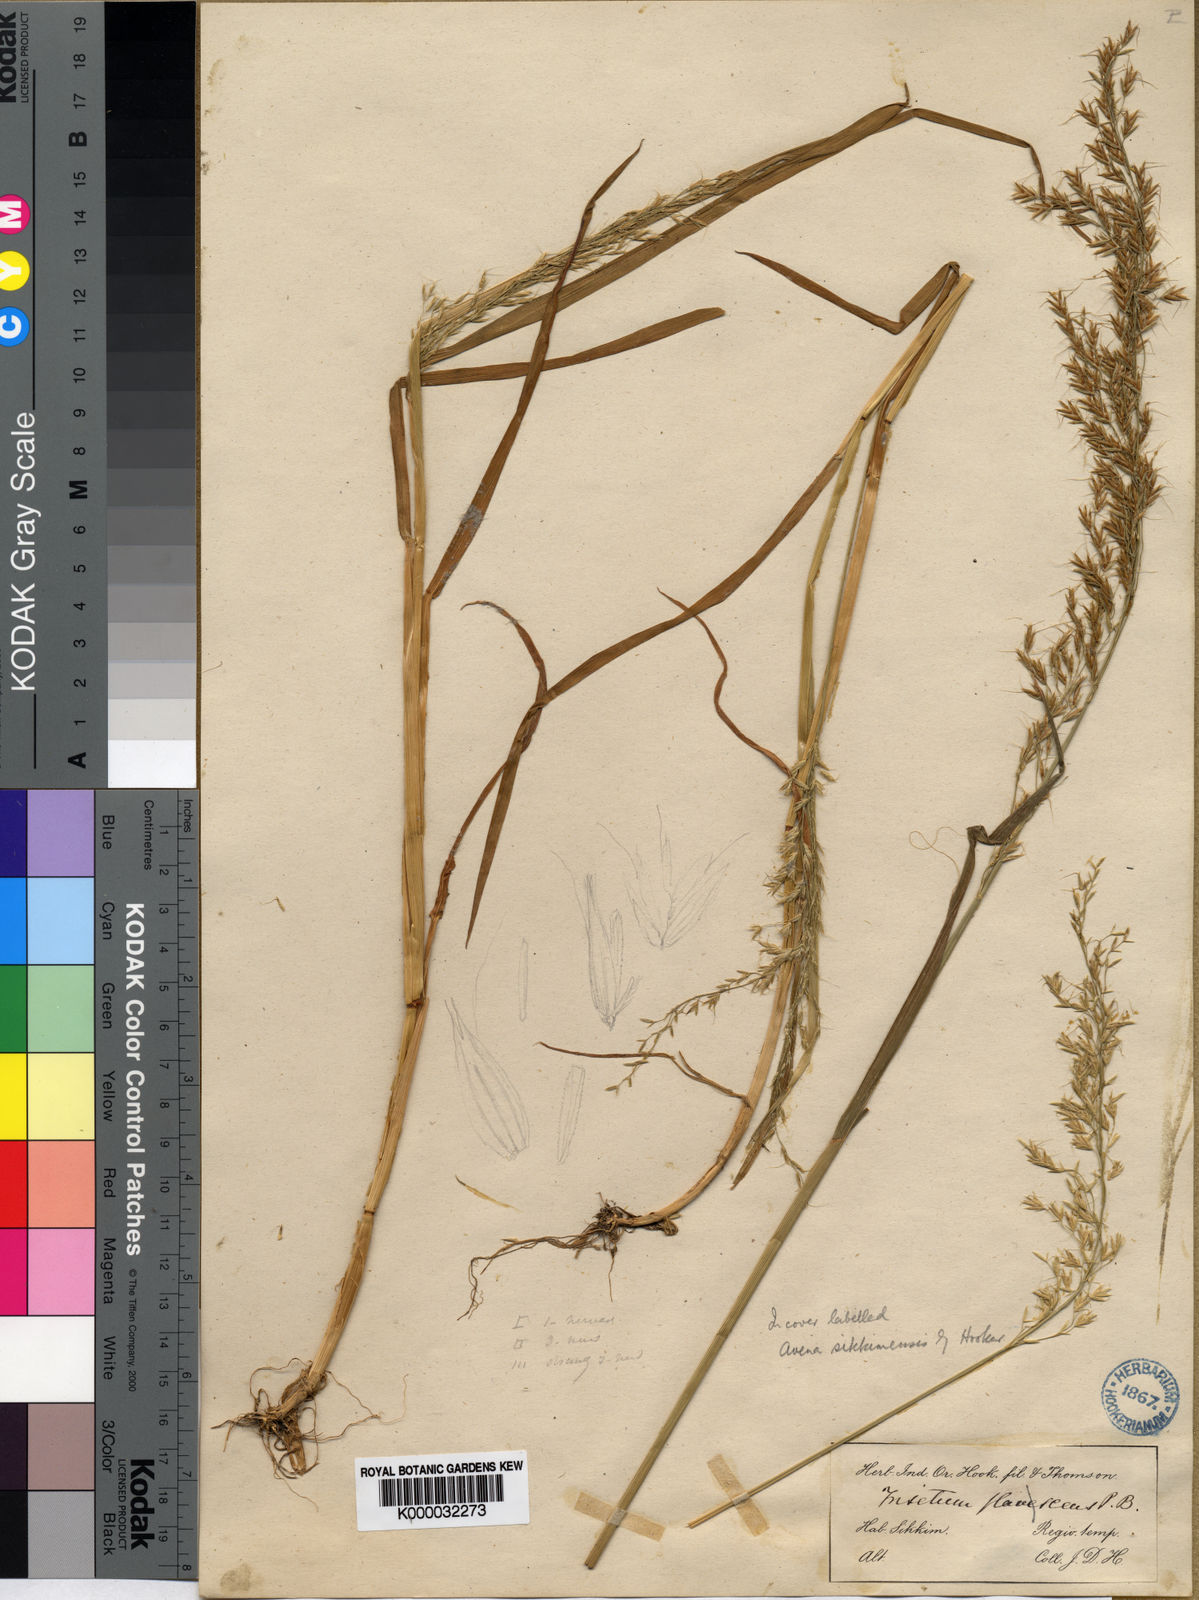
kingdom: Plantae
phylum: Tracheophyta
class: Liliopsida
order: Poales
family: Poaceae
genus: Sibirotrisetum
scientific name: Sibirotrisetum sibiricum
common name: Siberian false oat
